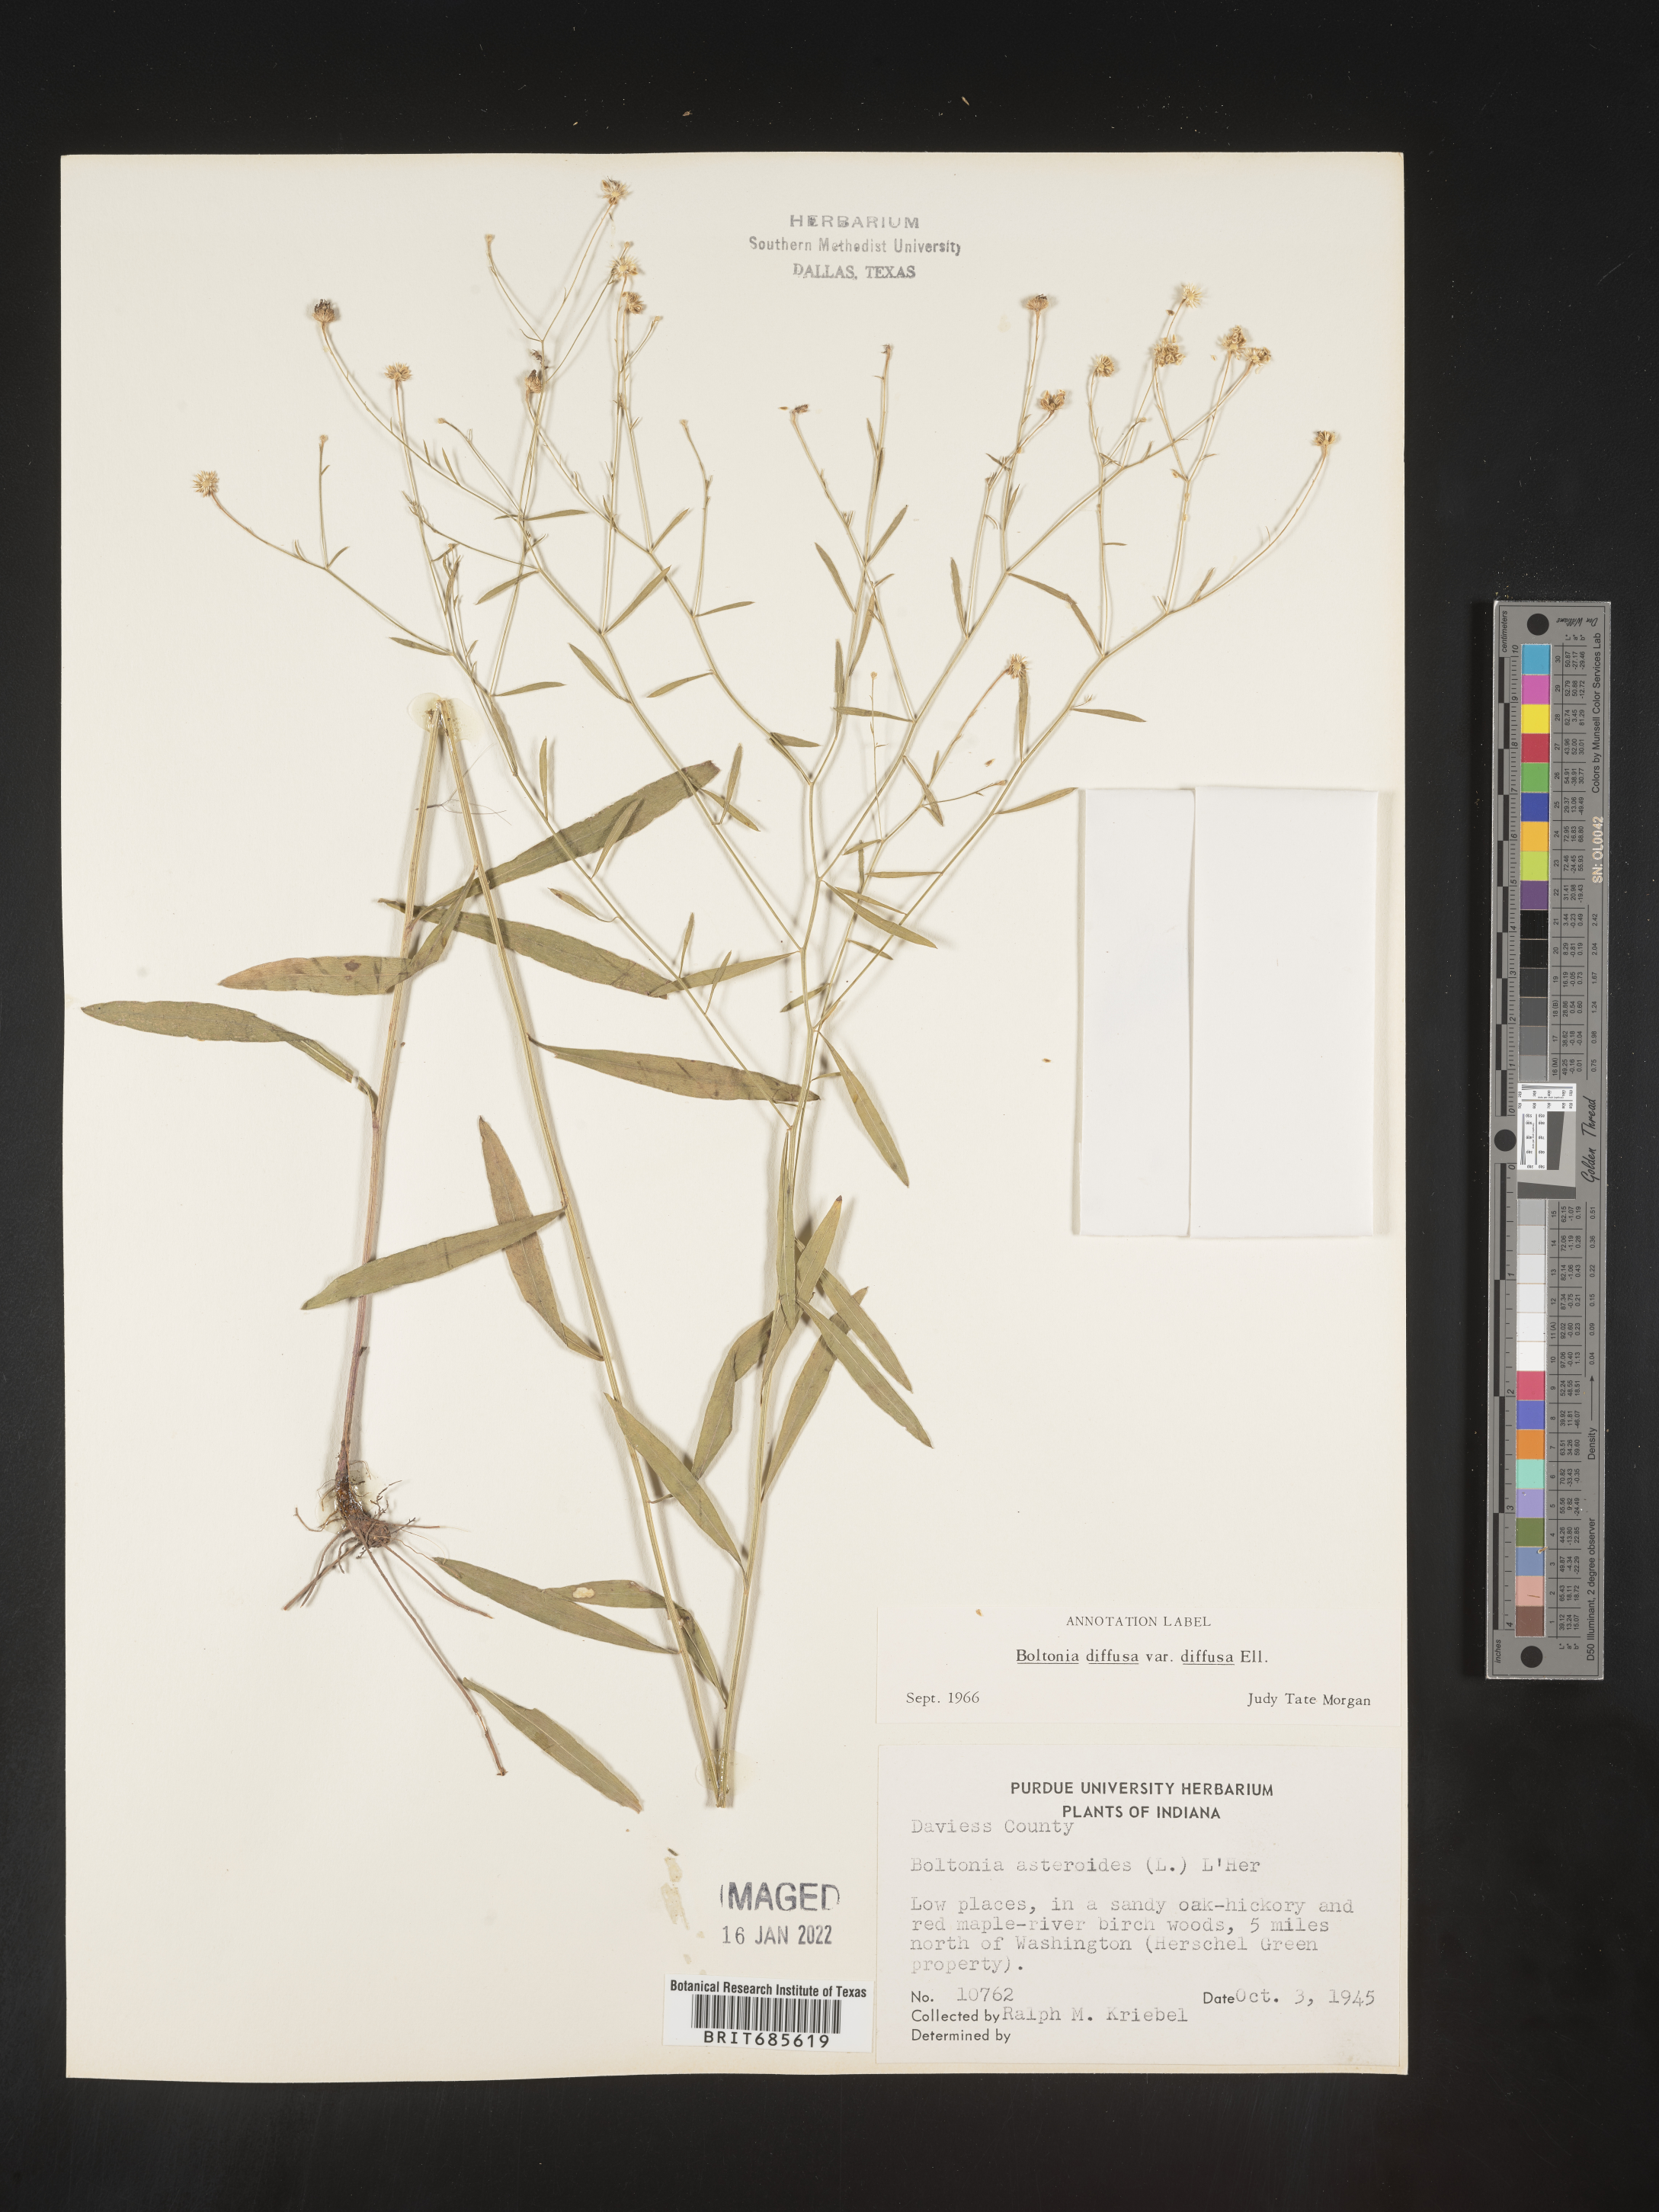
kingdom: Plantae
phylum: Tracheophyta
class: Magnoliopsida
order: Asterales
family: Asteraceae
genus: Boltonia
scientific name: Boltonia diffusa
